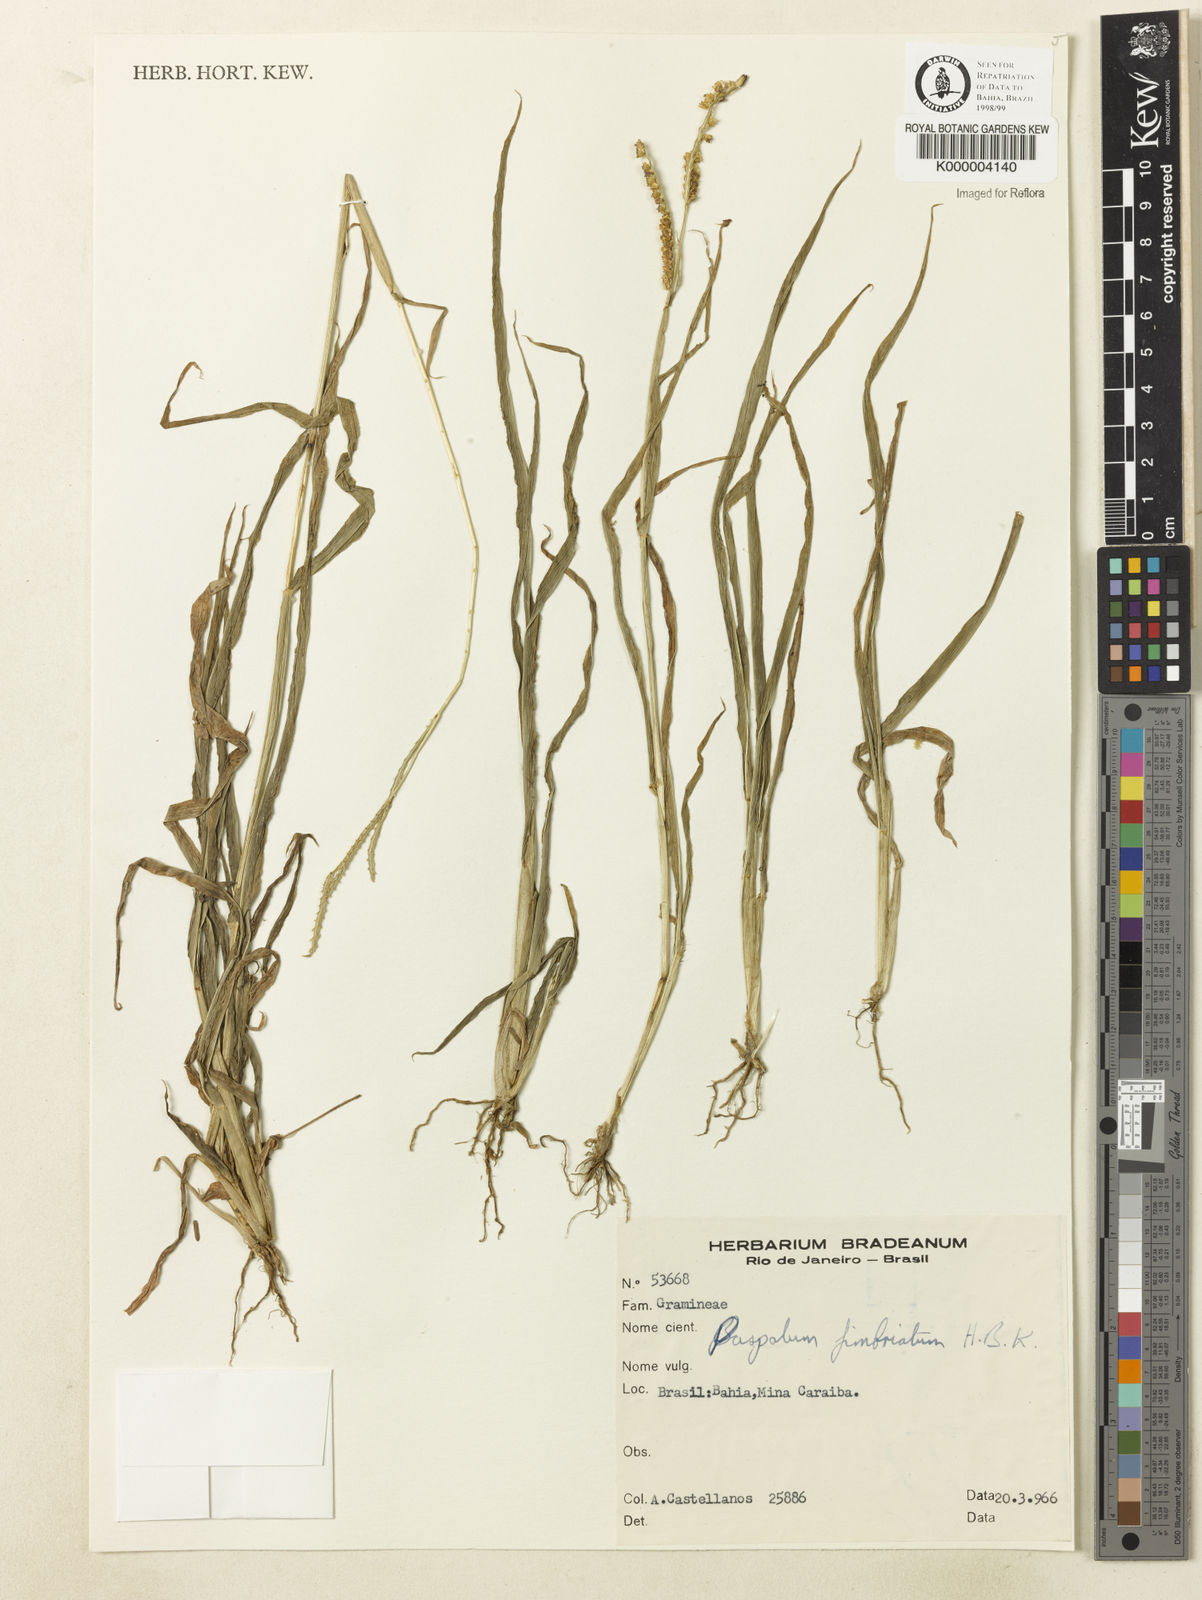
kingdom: Plantae
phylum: Tracheophyta
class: Liliopsida
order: Poales
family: Poaceae
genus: Paspalum
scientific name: Paspalum fimbriatum
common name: Panama crowngrass
